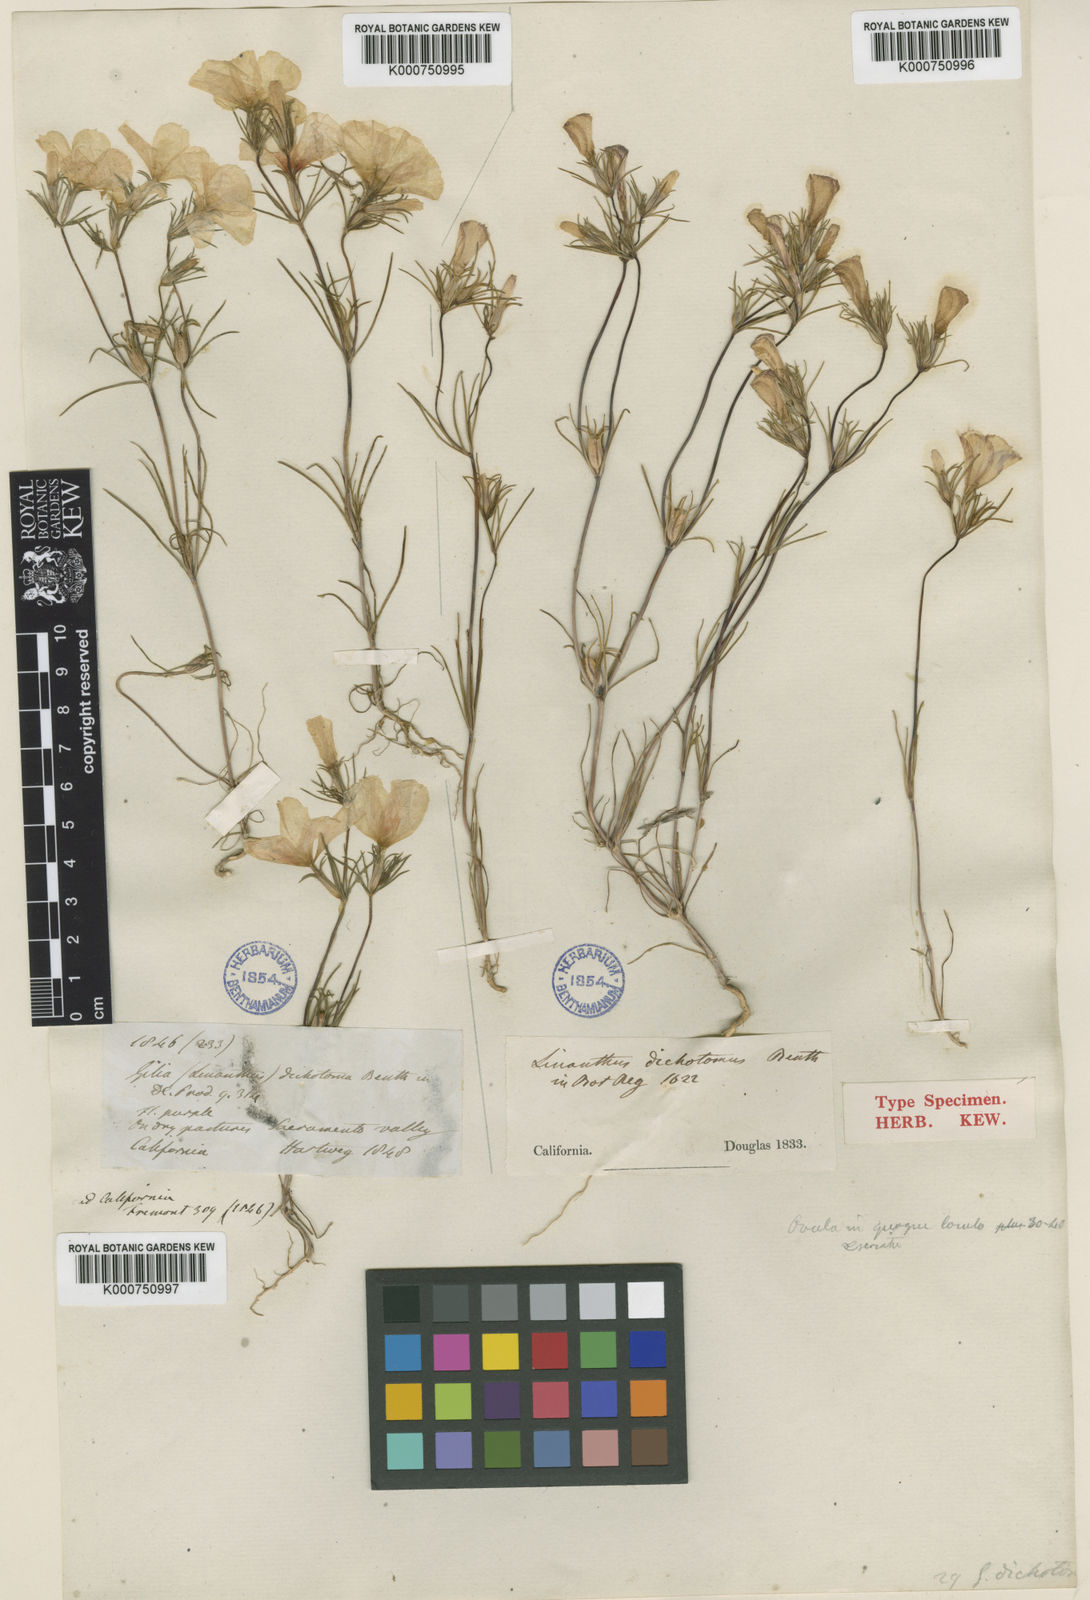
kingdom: Plantae
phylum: Tracheophyta
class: Magnoliopsida
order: Ericales
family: Polemoniaceae
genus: Linanthus
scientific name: Linanthus dichotomus
